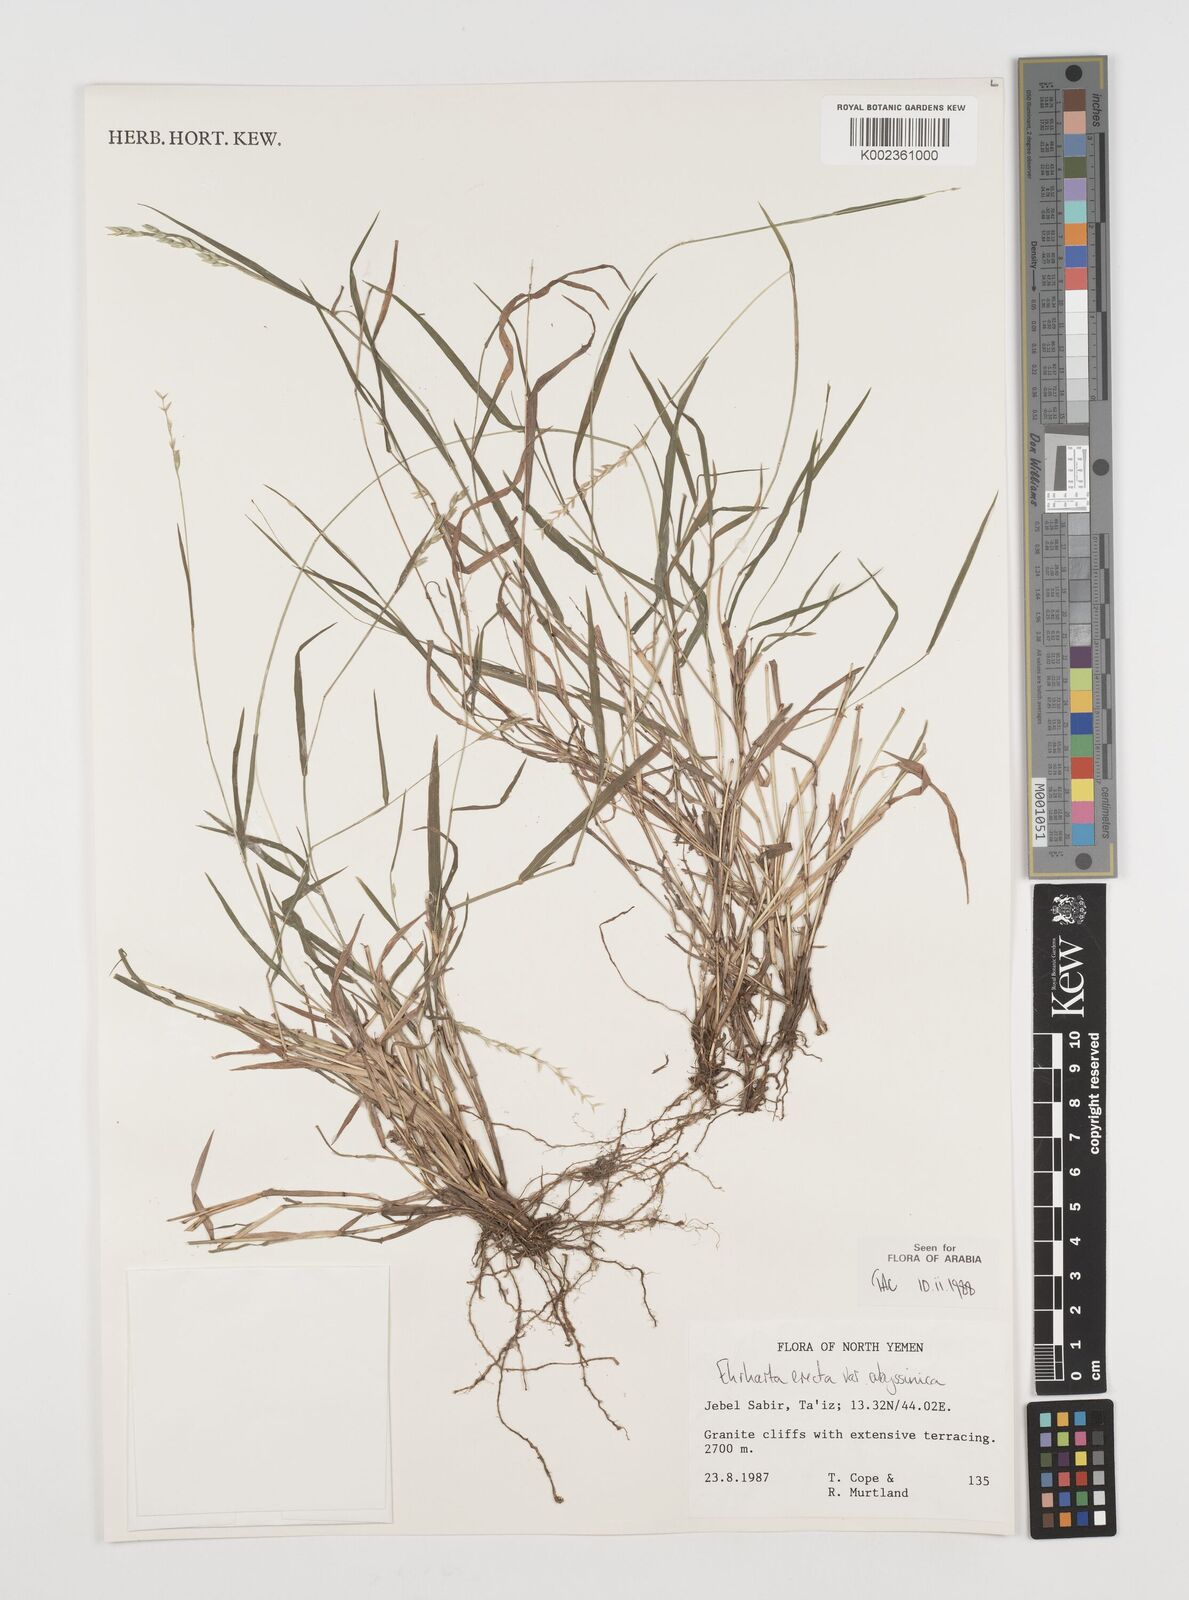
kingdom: Plantae
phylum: Tracheophyta
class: Liliopsida
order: Poales
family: Poaceae
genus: Ehrharta
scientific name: Ehrharta erecta
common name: Panic veldtgrass
